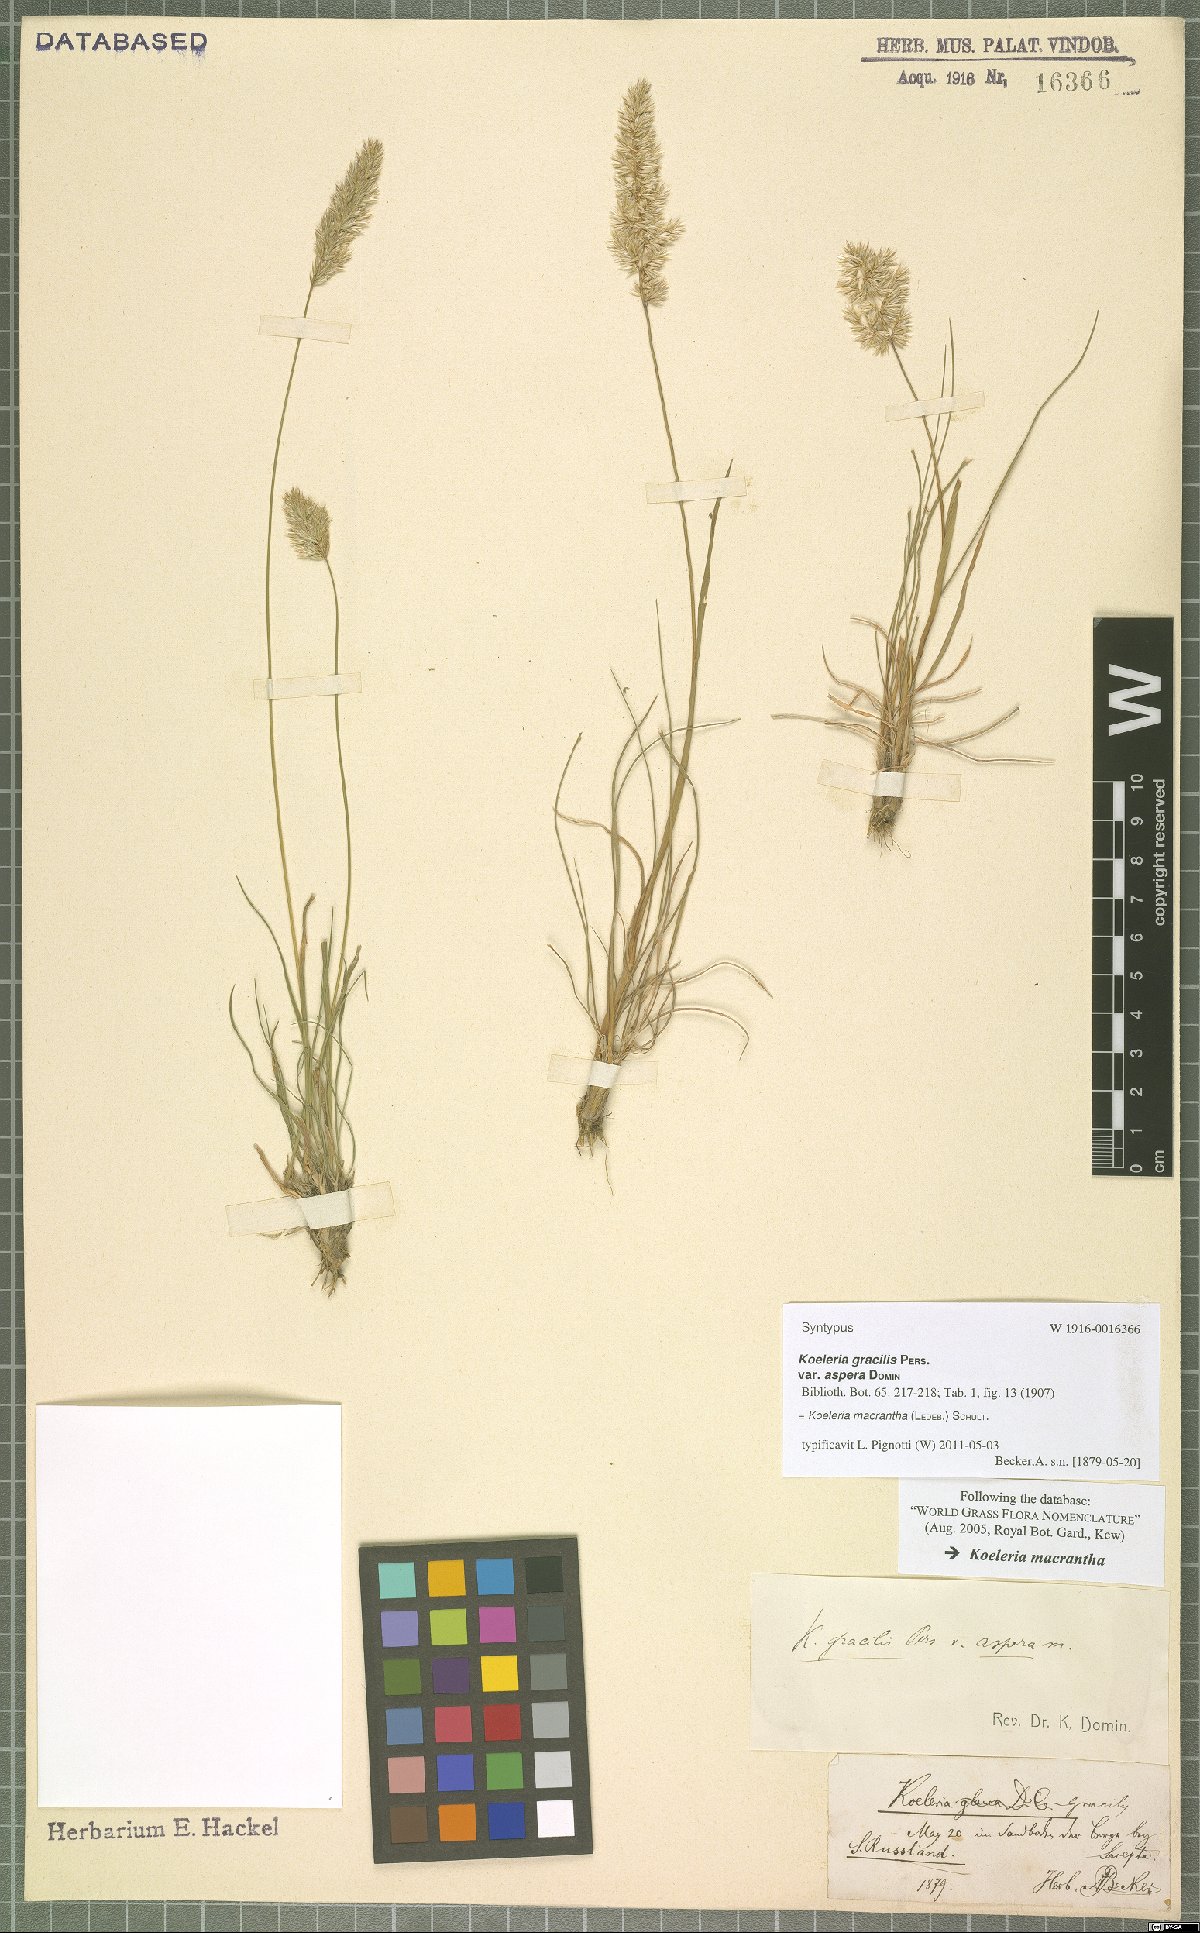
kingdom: Plantae
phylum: Tracheophyta
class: Liliopsida
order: Poales
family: Poaceae
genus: Koeleria
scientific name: Koeleria macrantha
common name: Crested hair-grass
